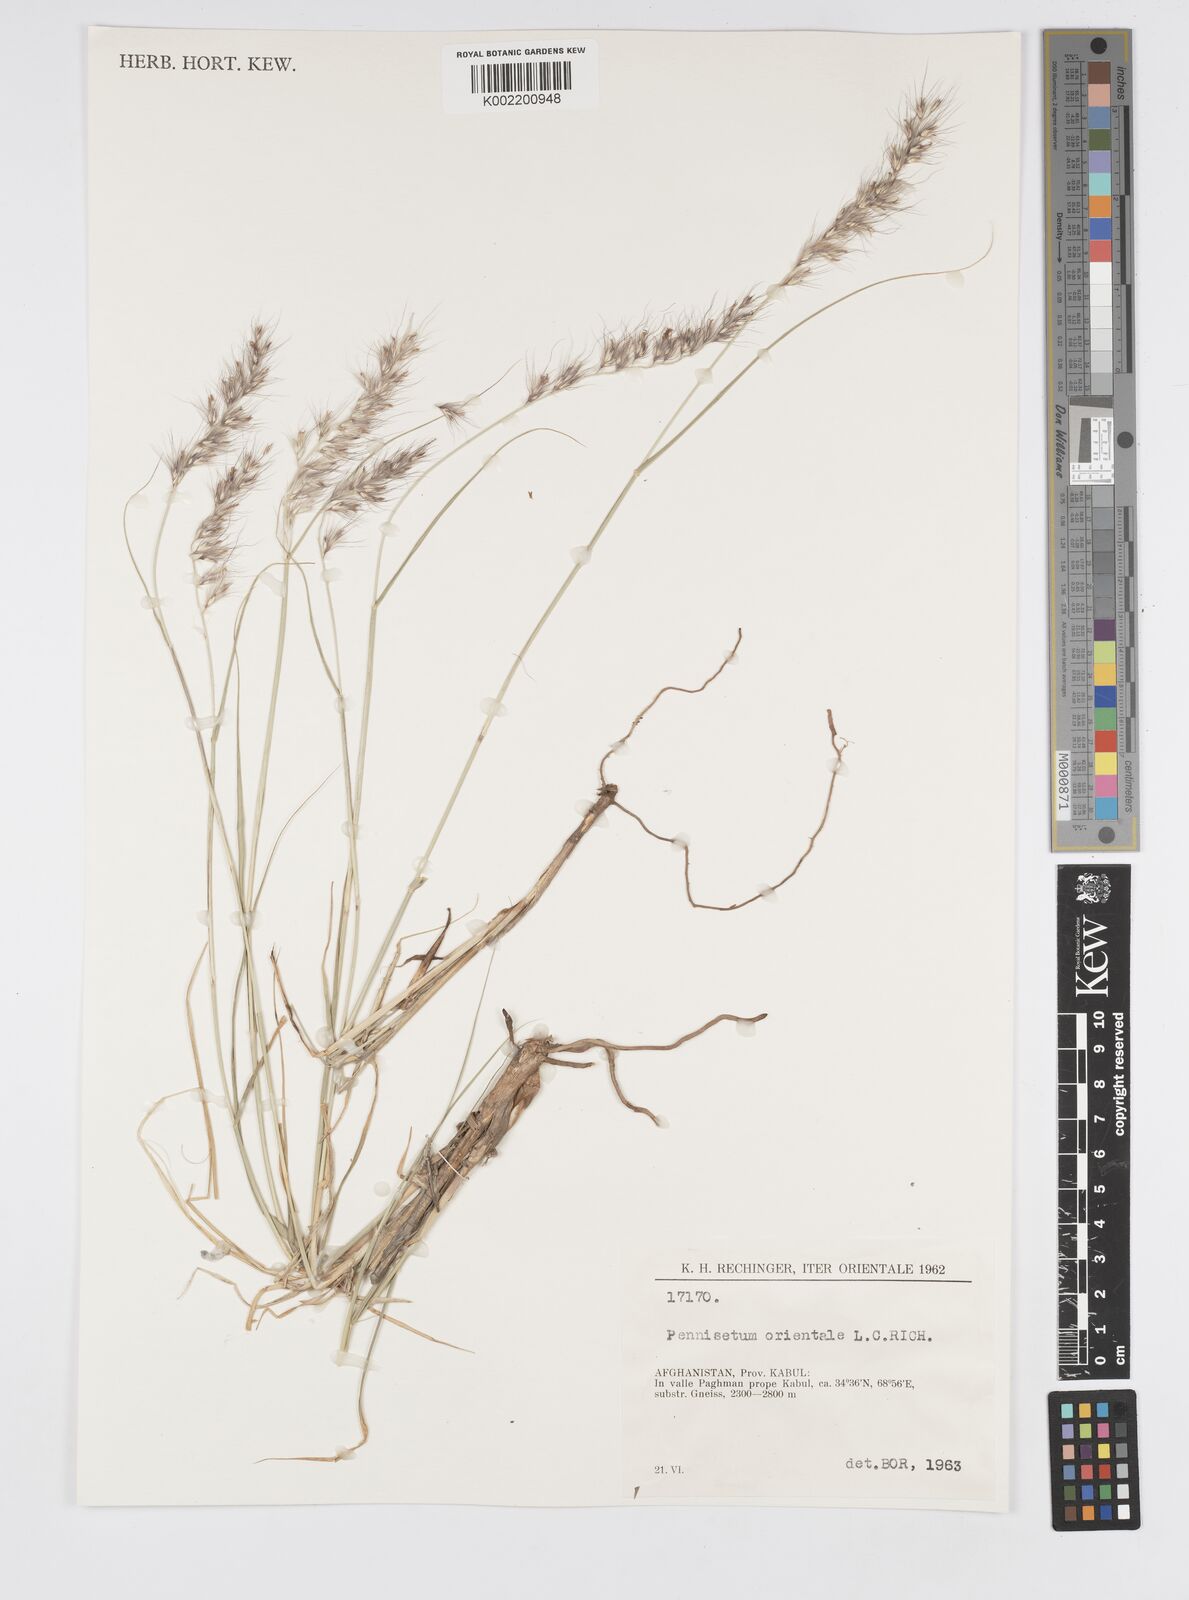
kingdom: Plantae
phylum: Tracheophyta
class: Liliopsida
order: Poales
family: Poaceae
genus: Cenchrus
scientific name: Cenchrus orientalis
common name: Oriental fountain grass
